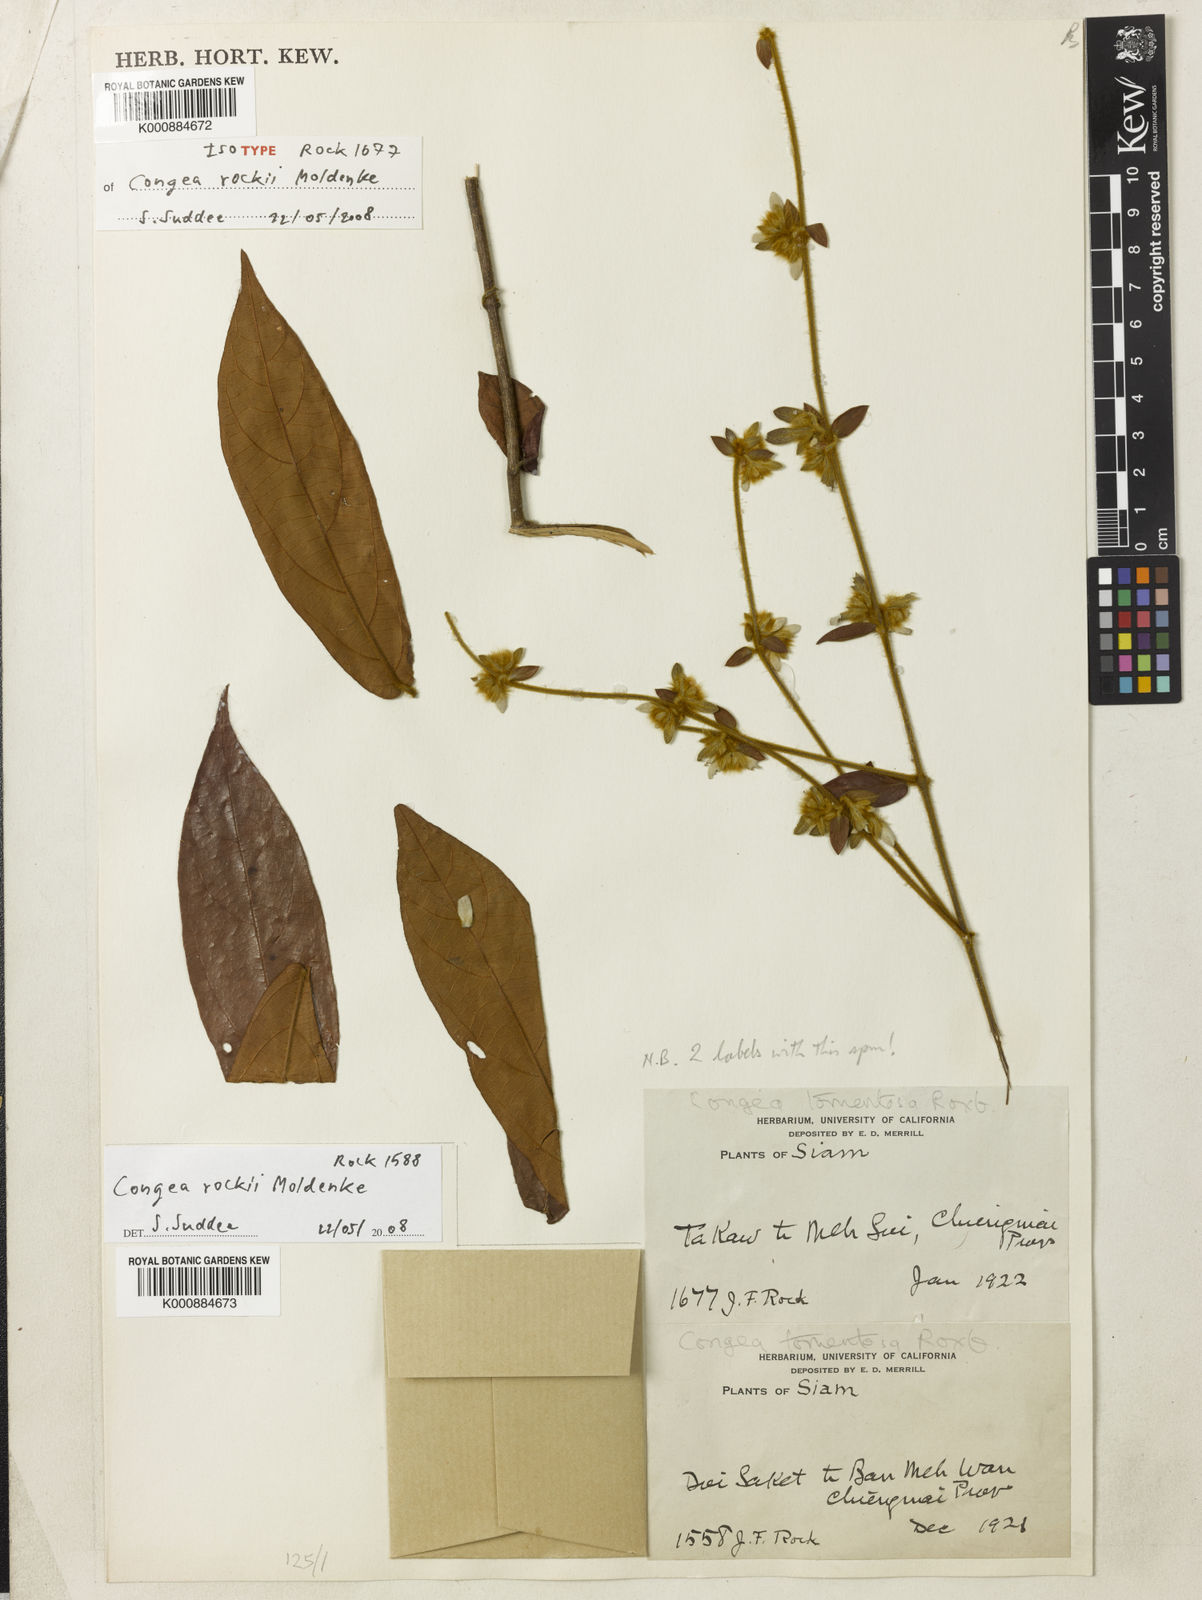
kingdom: Plantae
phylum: Tracheophyta
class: Magnoliopsida
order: Lamiales
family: Lamiaceae
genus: Congea
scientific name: Congea rockii
